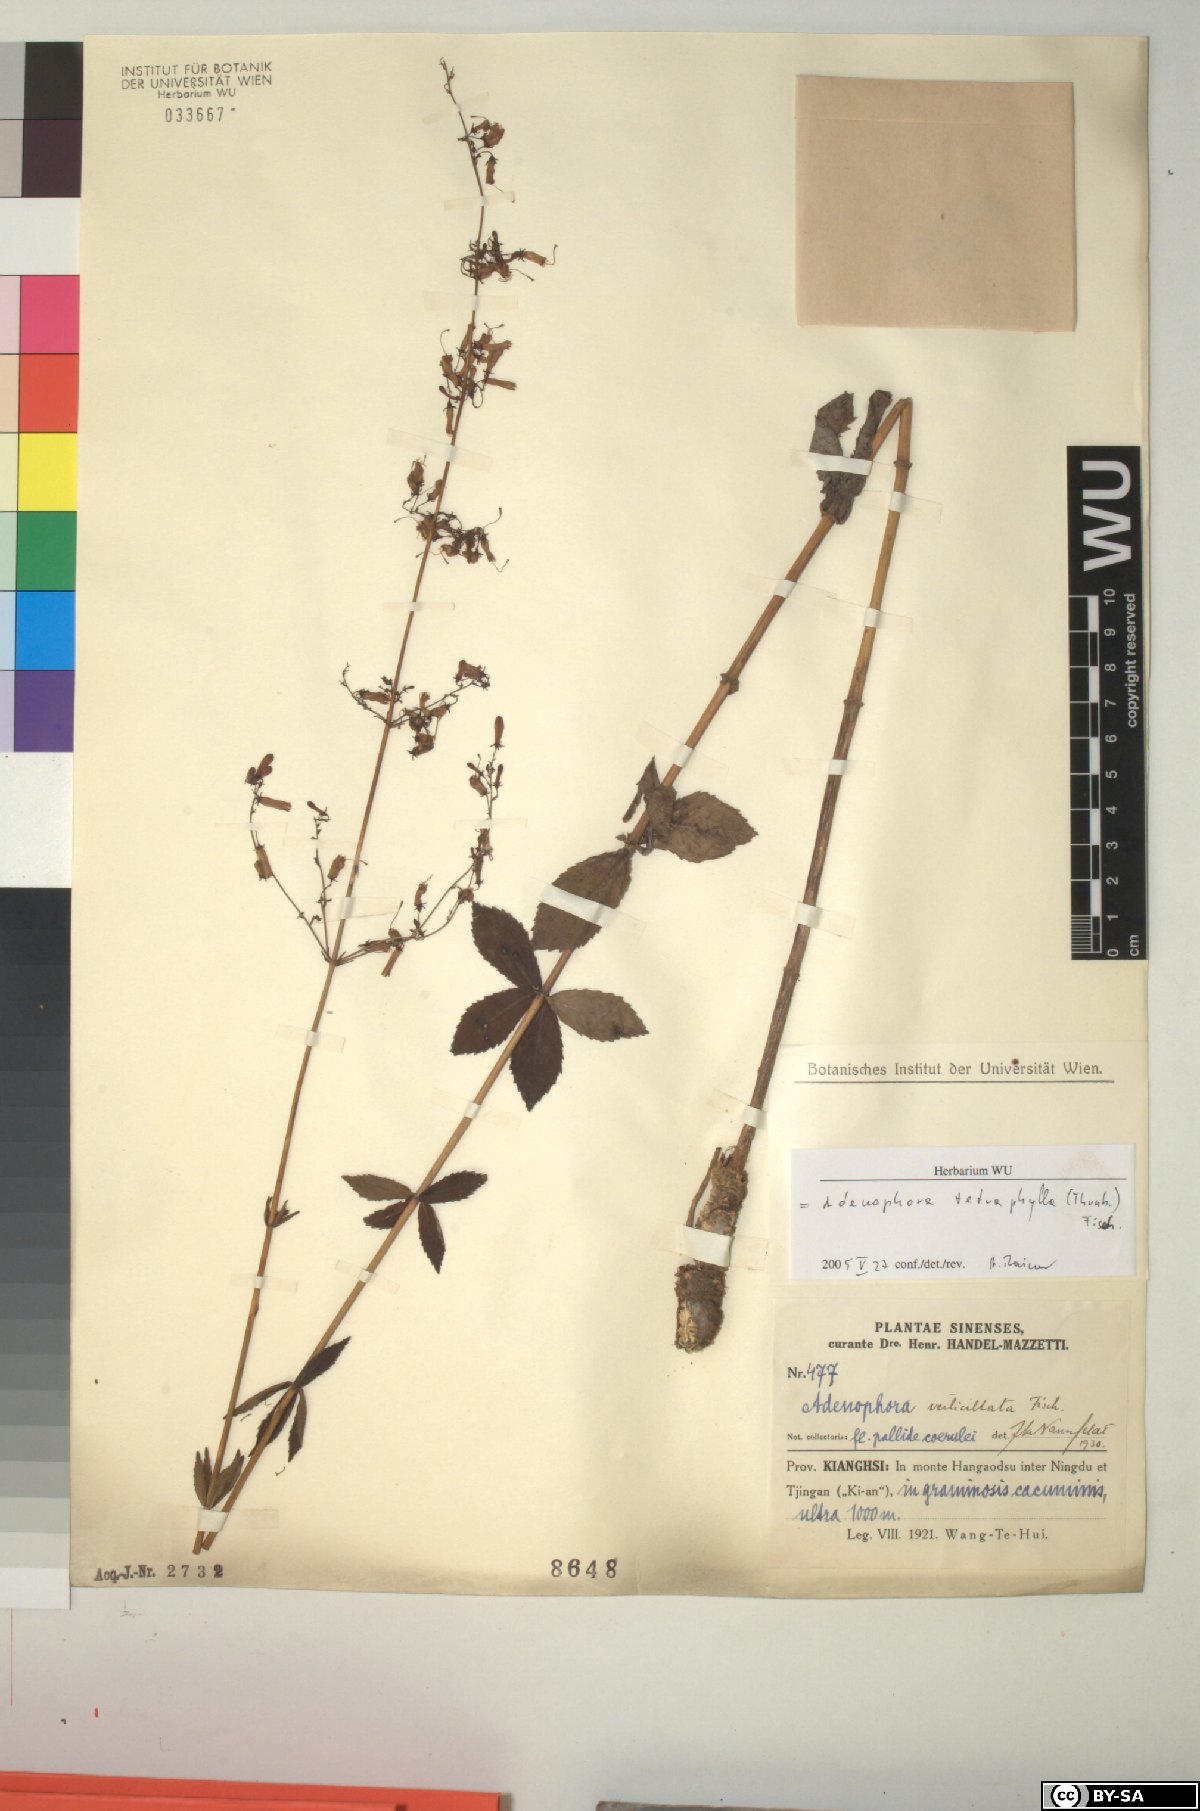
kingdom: Plantae
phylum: Tracheophyta
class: Magnoliopsida
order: Asterales
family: Campanulaceae
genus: Adenophora
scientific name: Adenophora triphylla
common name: Giant-bellflower
